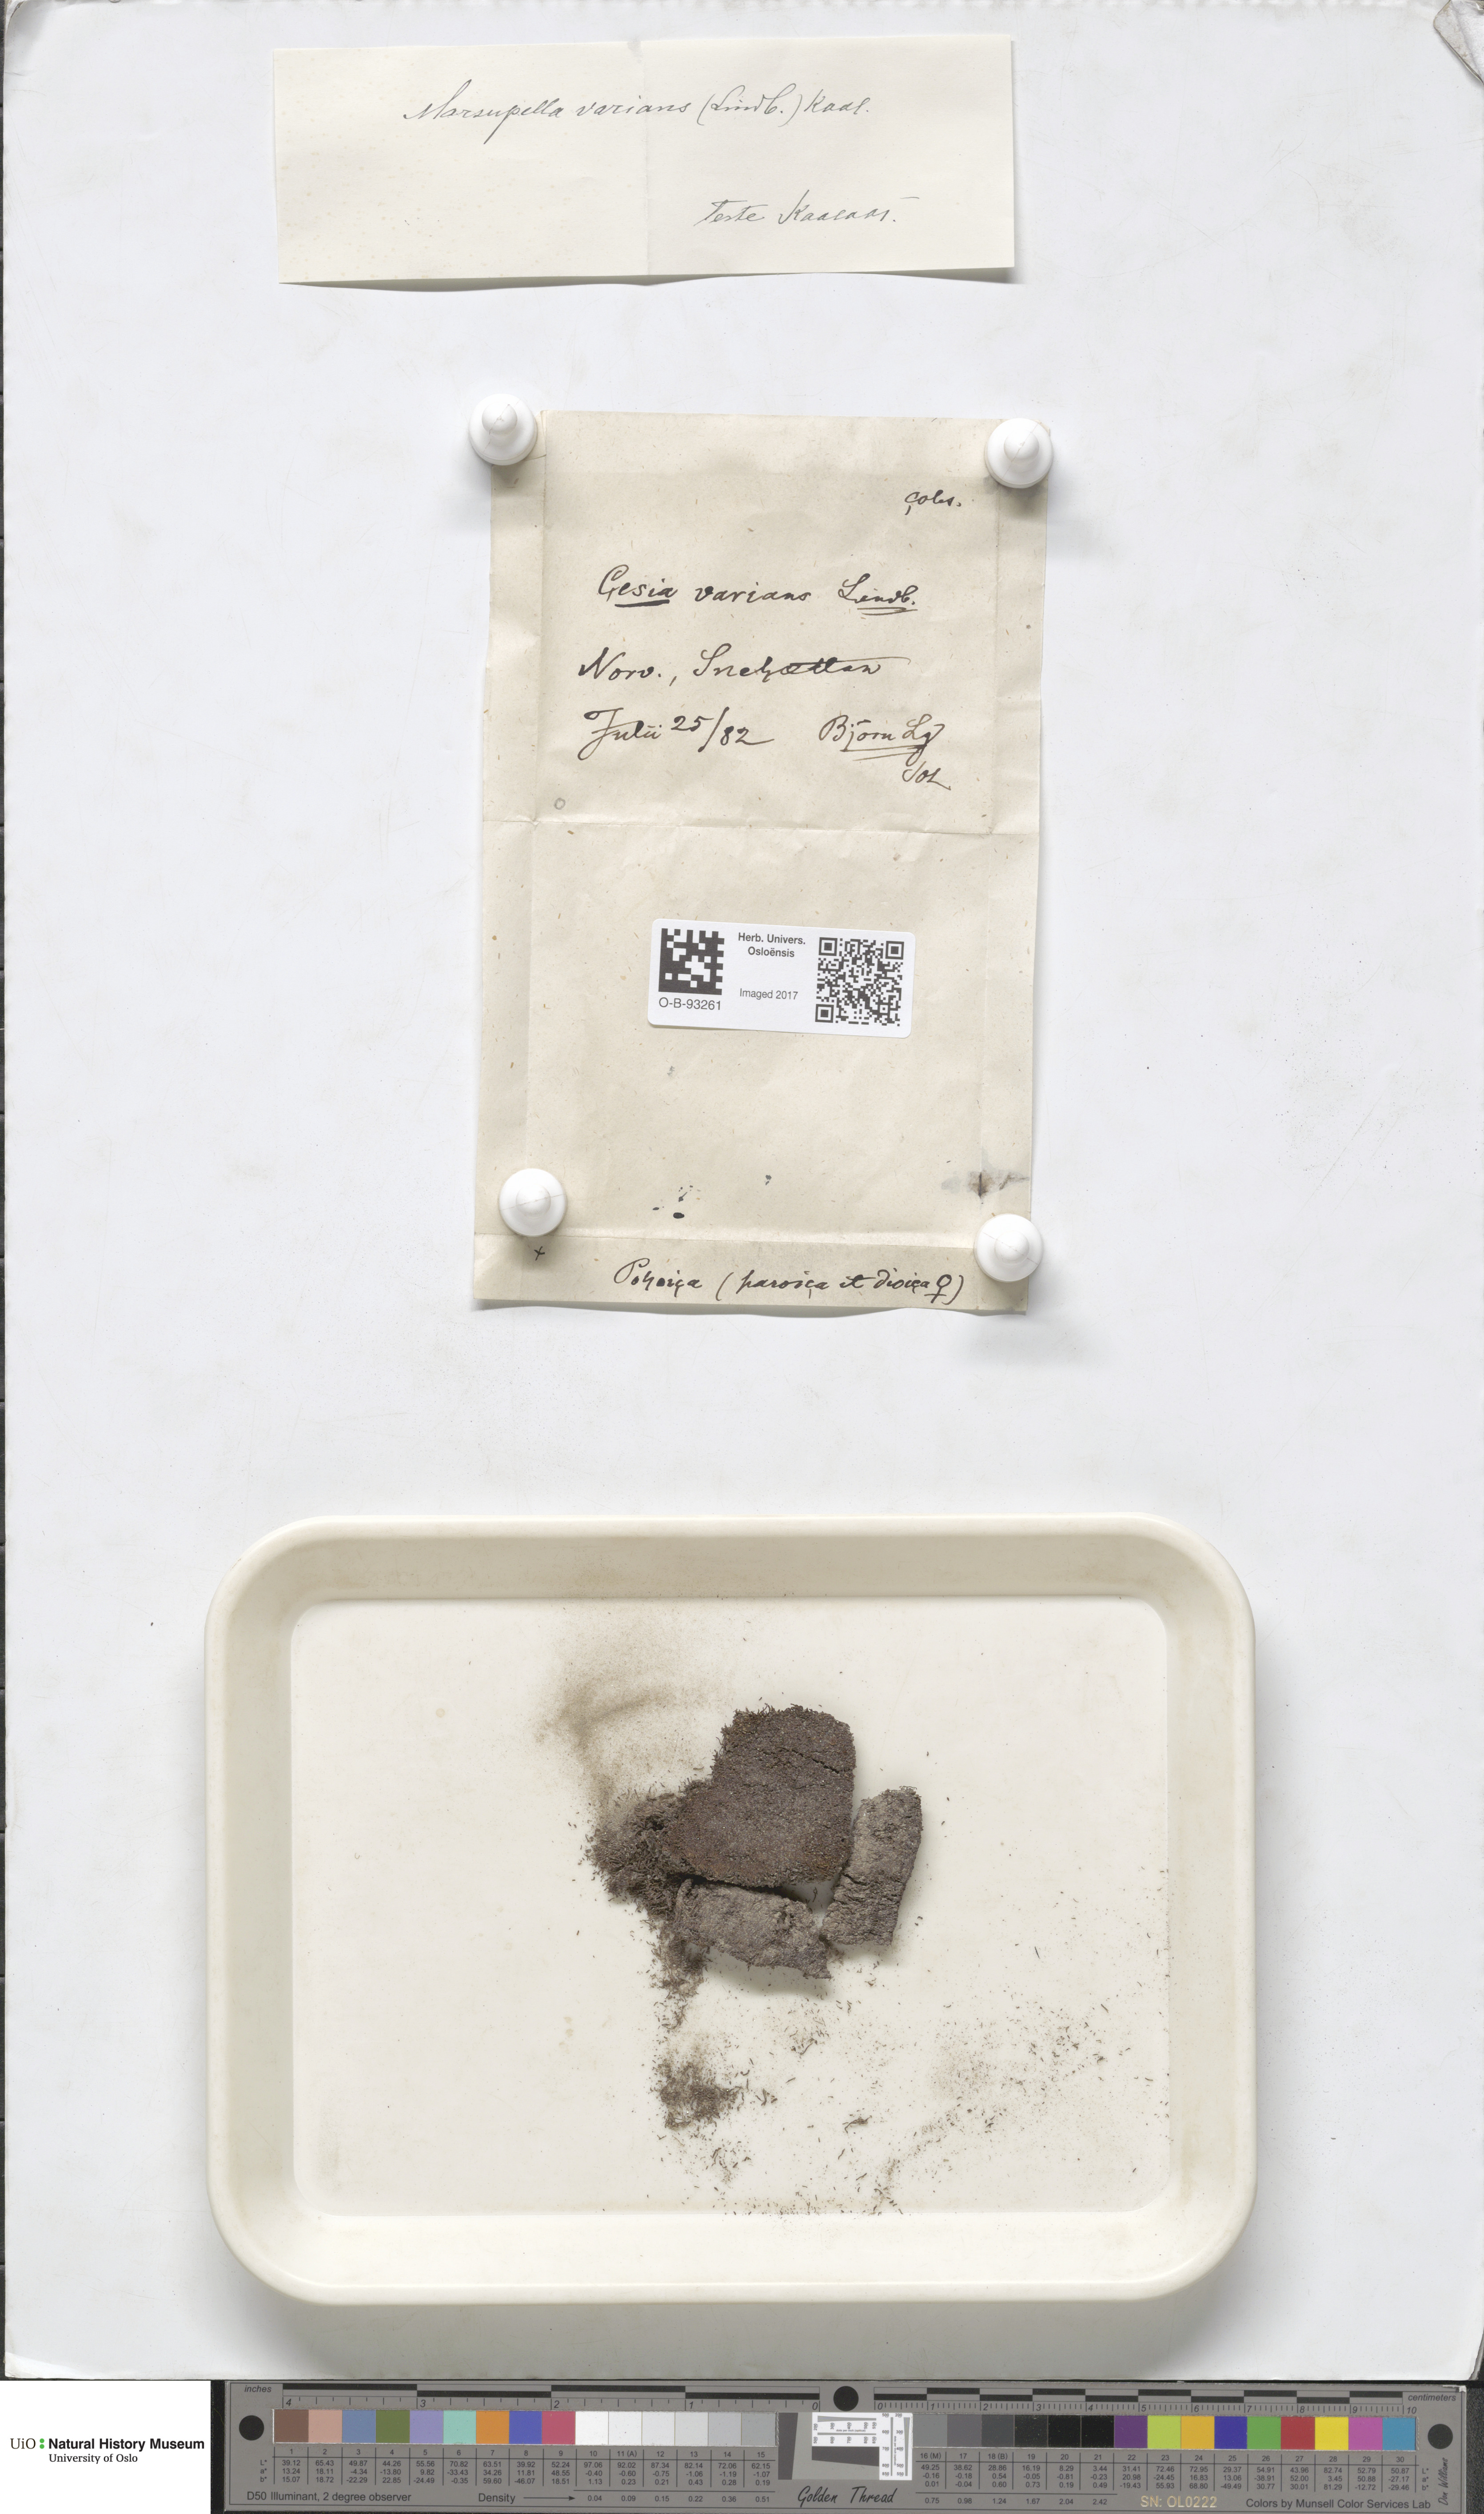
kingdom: Plantae
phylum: Marchantiophyta
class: Jungermanniopsida
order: Jungermanniales
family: Gymnomitriaceae
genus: Gymnomitrion
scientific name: Gymnomitrion brevissimum
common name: Snow rustwort
